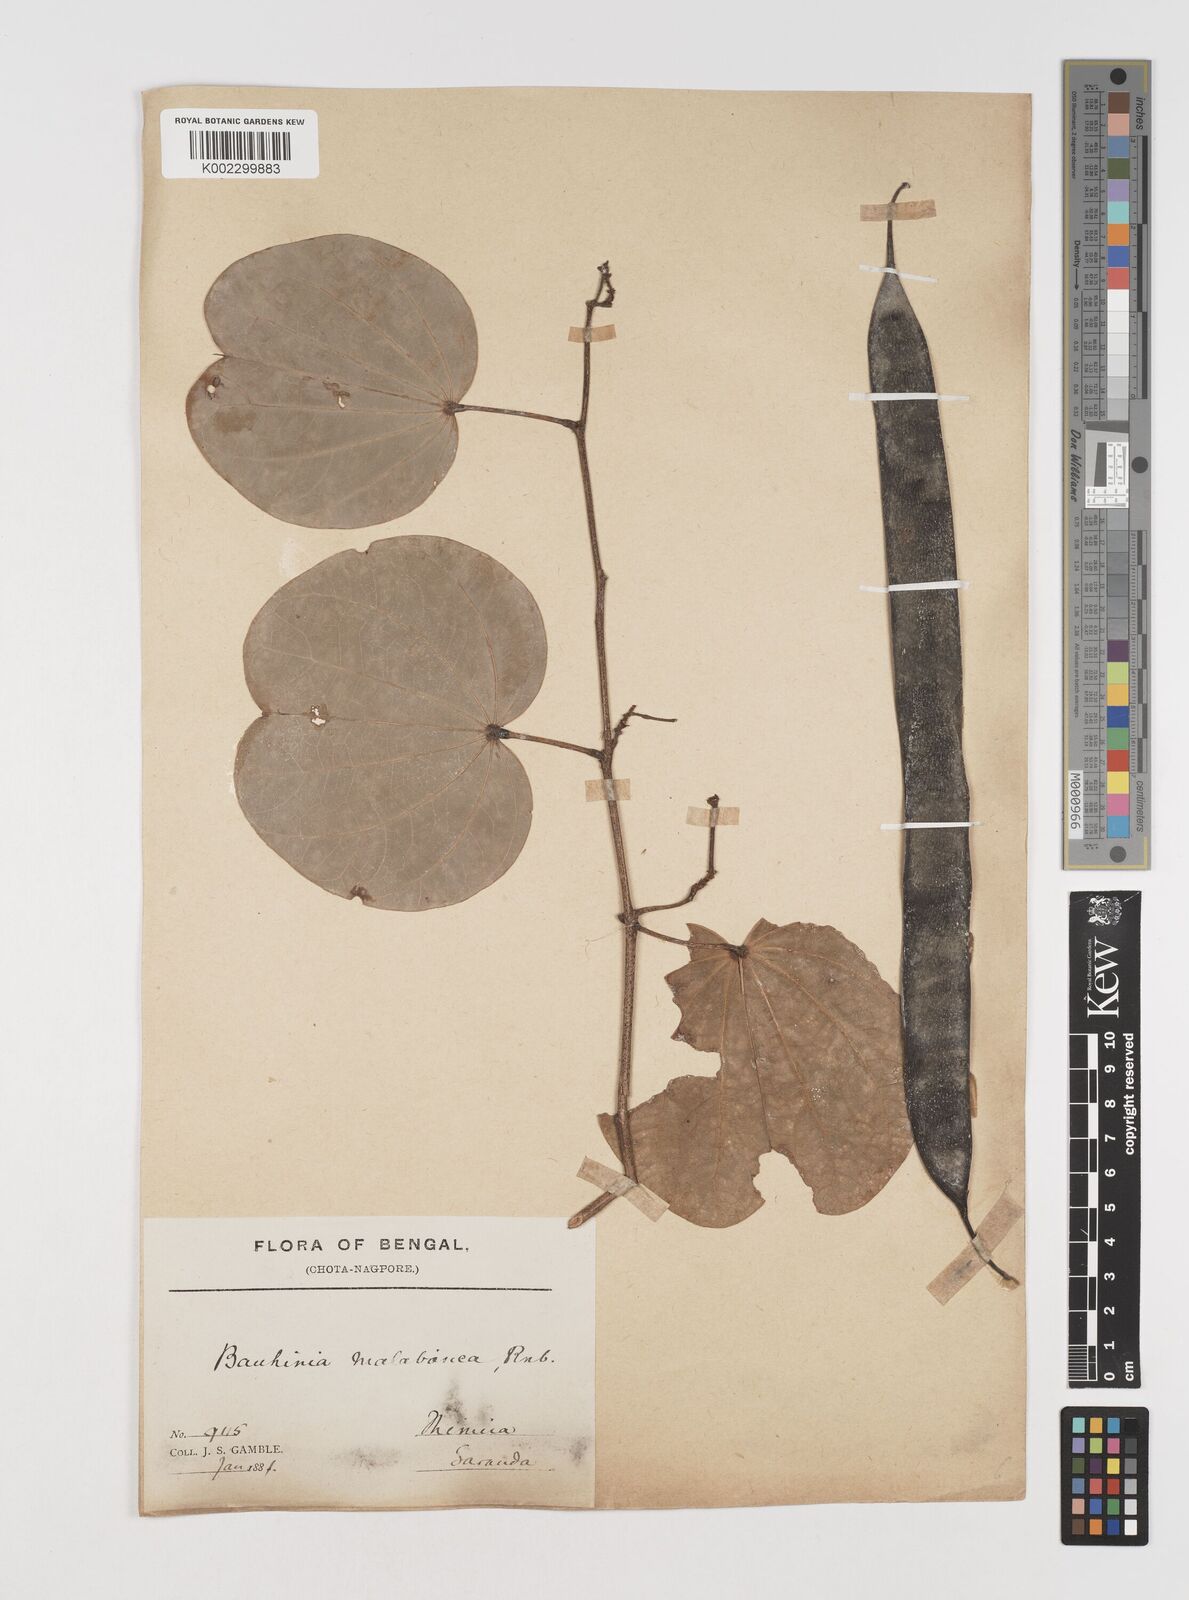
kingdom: Plantae
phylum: Tracheophyta
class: Magnoliopsida
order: Fabales
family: Fabaceae
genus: Piliostigma
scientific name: Piliostigma malabaricum
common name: Malabar bauhinia
